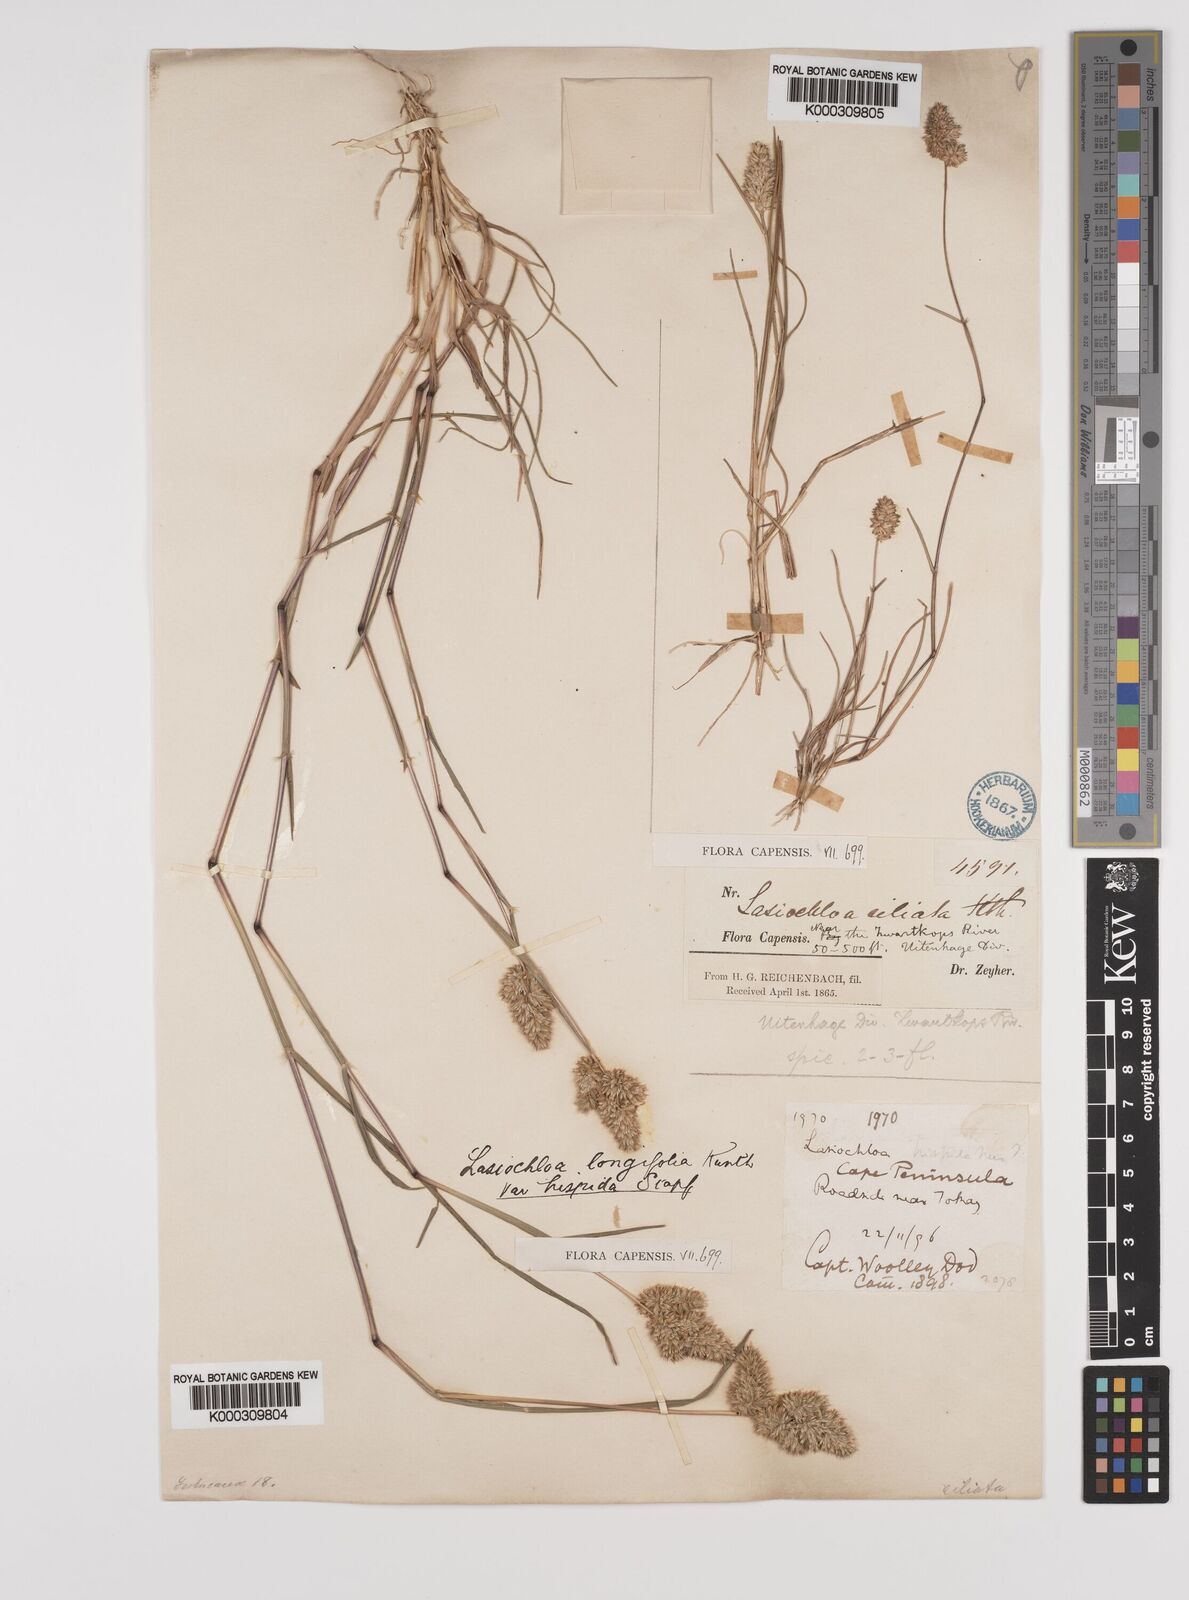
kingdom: Plantae
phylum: Tracheophyta
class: Liliopsida
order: Poales
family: Poaceae
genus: Tribolium
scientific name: Tribolium hispidum
